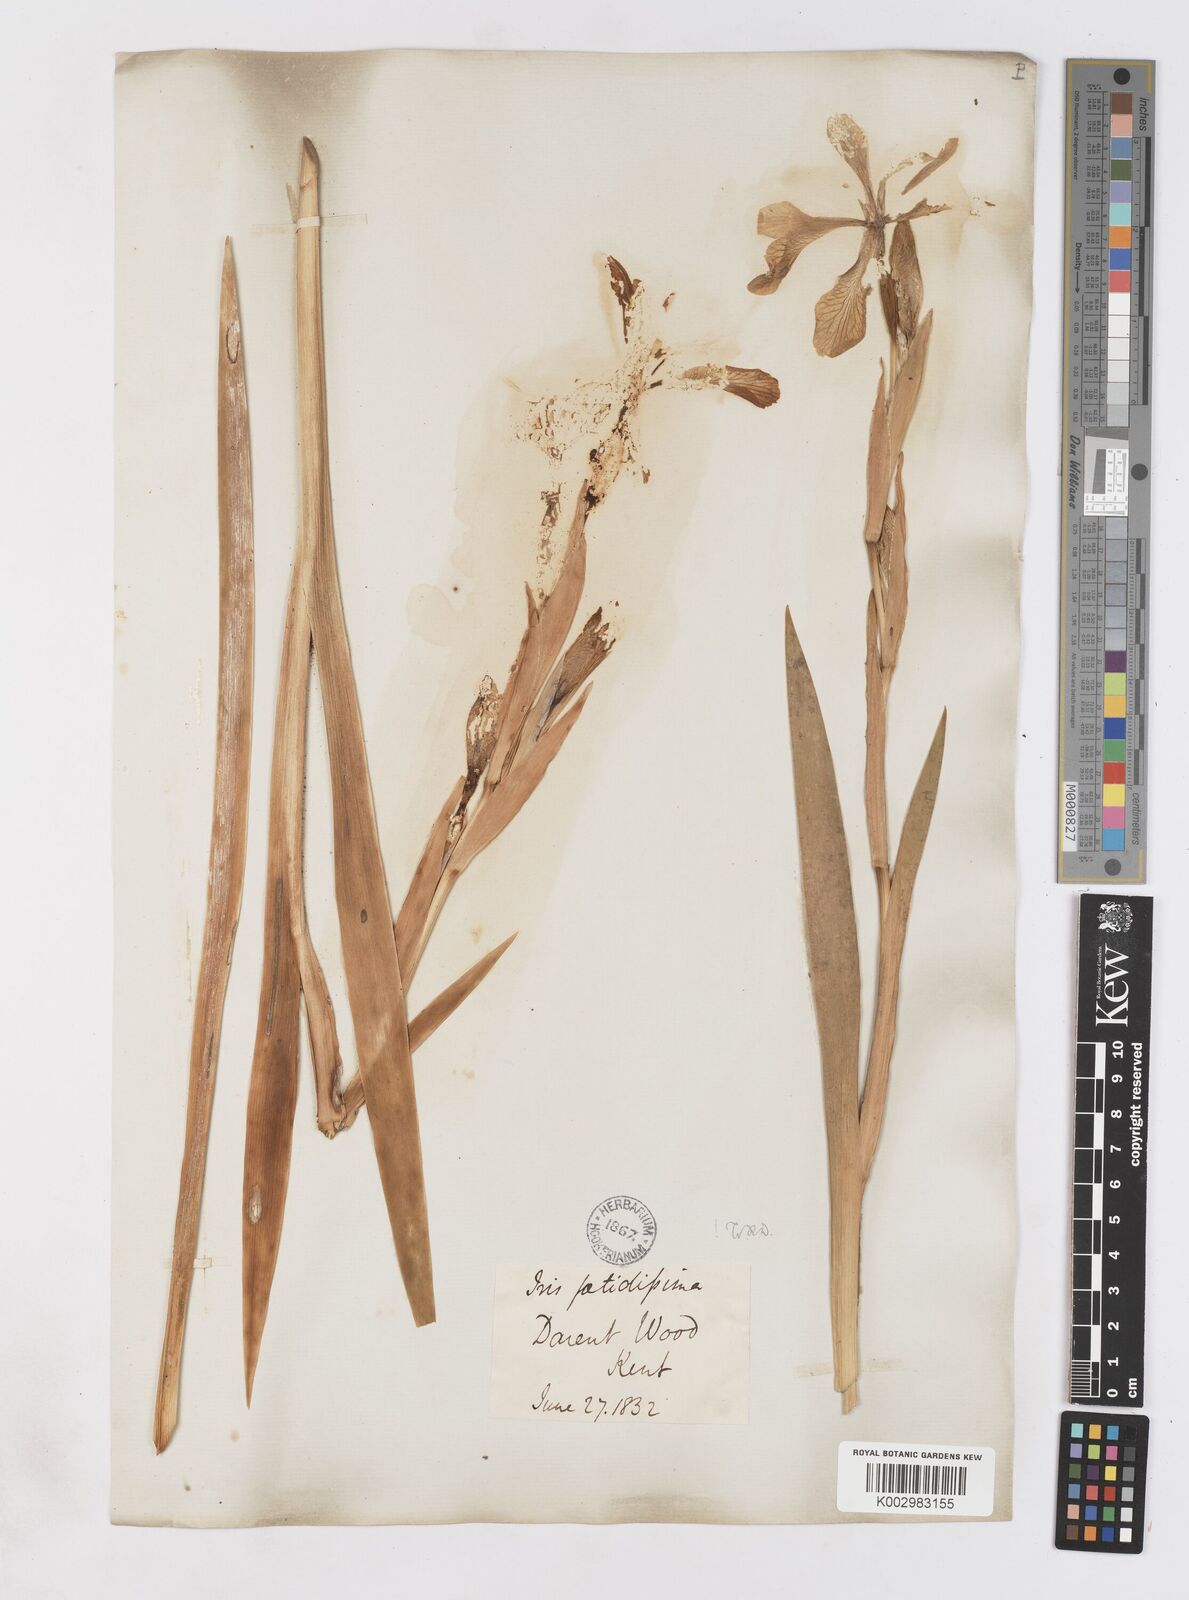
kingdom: Plantae
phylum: Tracheophyta
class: Liliopsida
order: Asparagales
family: Iridaceae
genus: Iris
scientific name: Iris foetidissima
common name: Stinking iris
